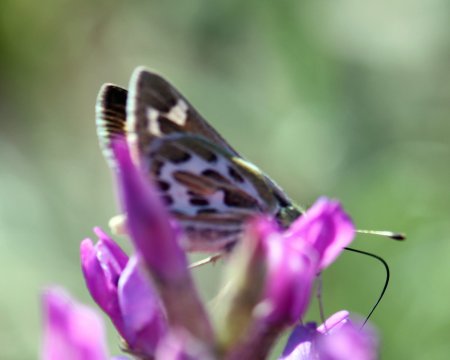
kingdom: Animalia
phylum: Arthropoda
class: Insecta
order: Lepidoptera
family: Hesperiidae
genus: Hesperia
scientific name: Hesperia uncas
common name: Uncas Skipper
